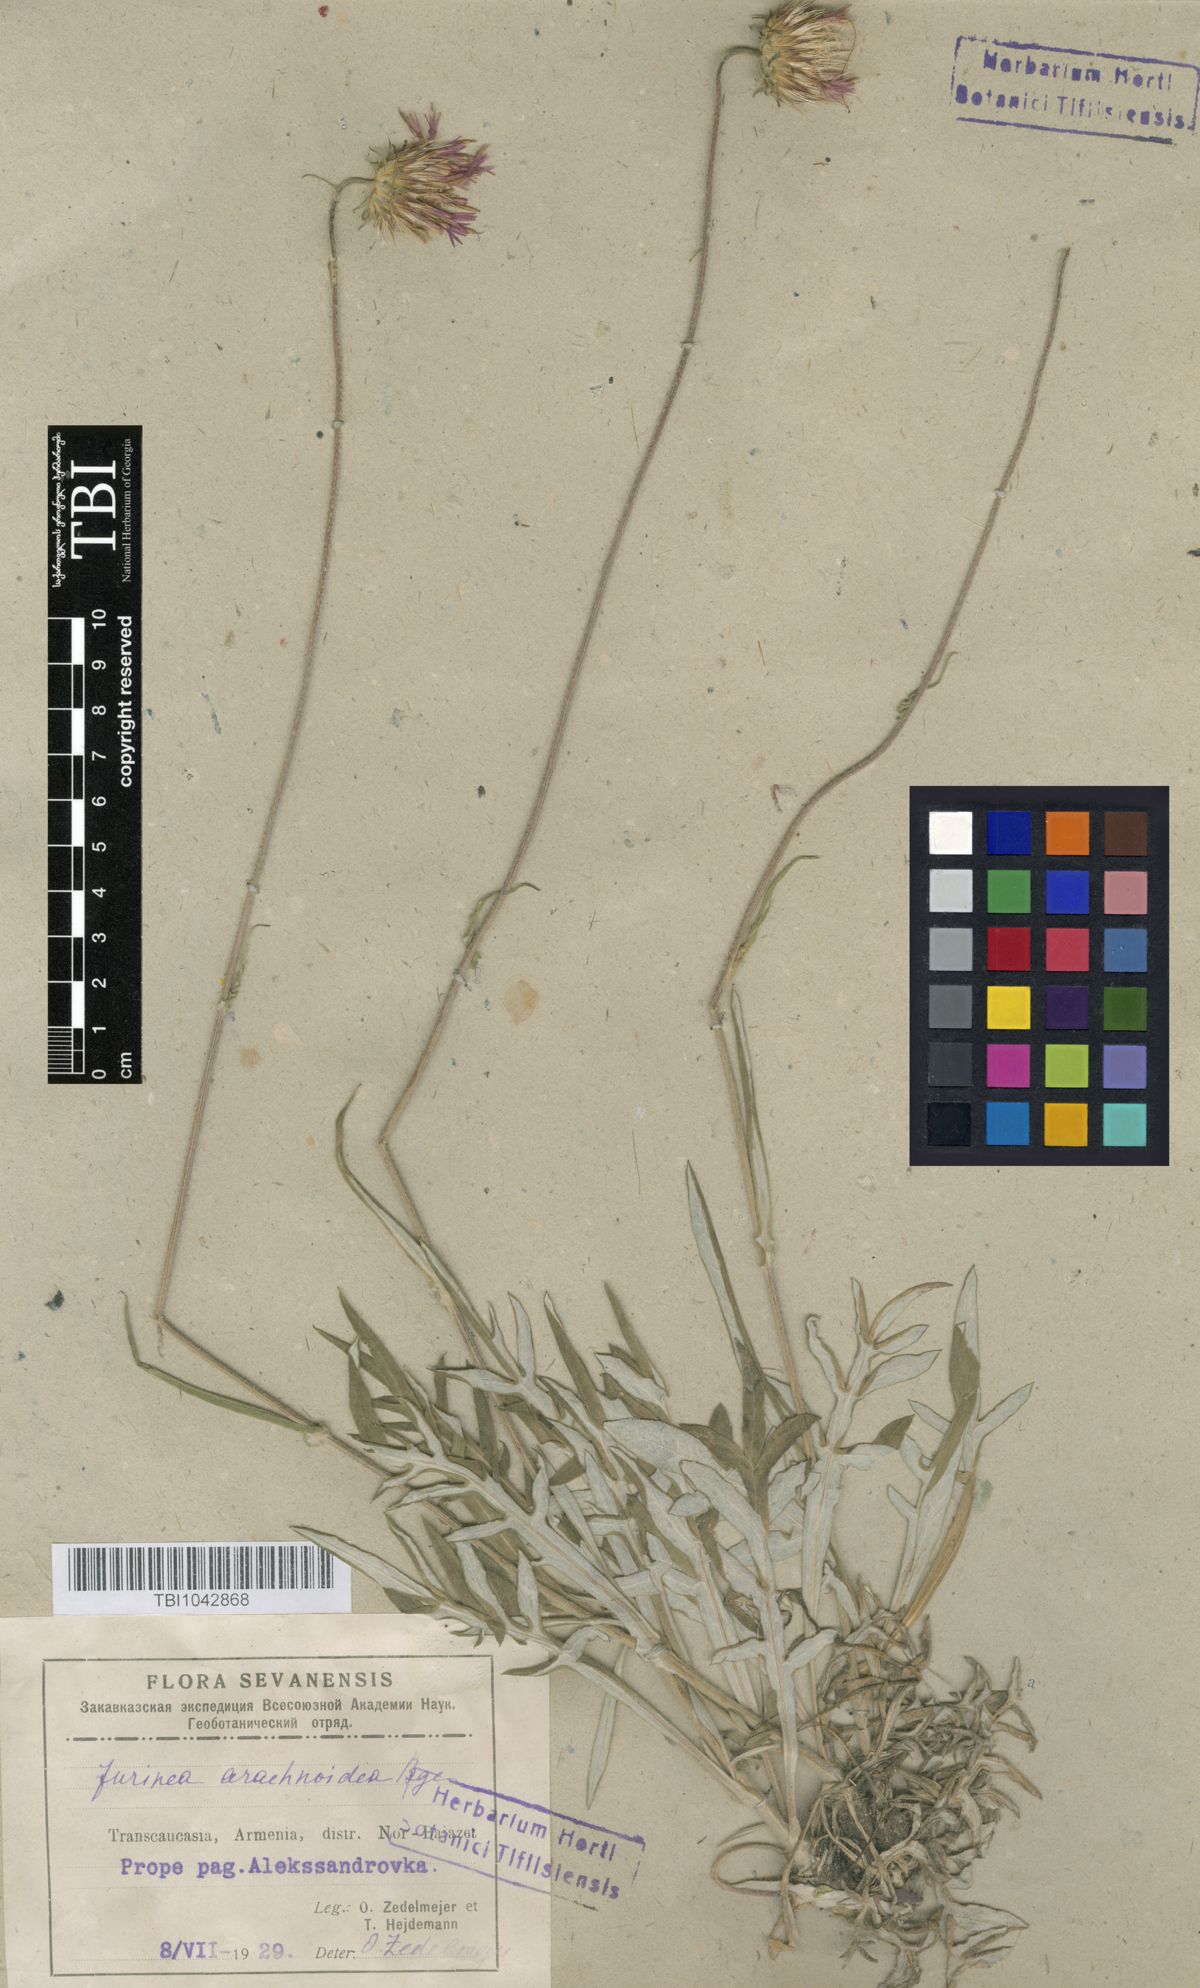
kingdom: Plantae
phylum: Tracheophyta
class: Magnoliopsida
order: Asterales
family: Asteraceae
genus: Jurinea
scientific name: Jurinea blanda
